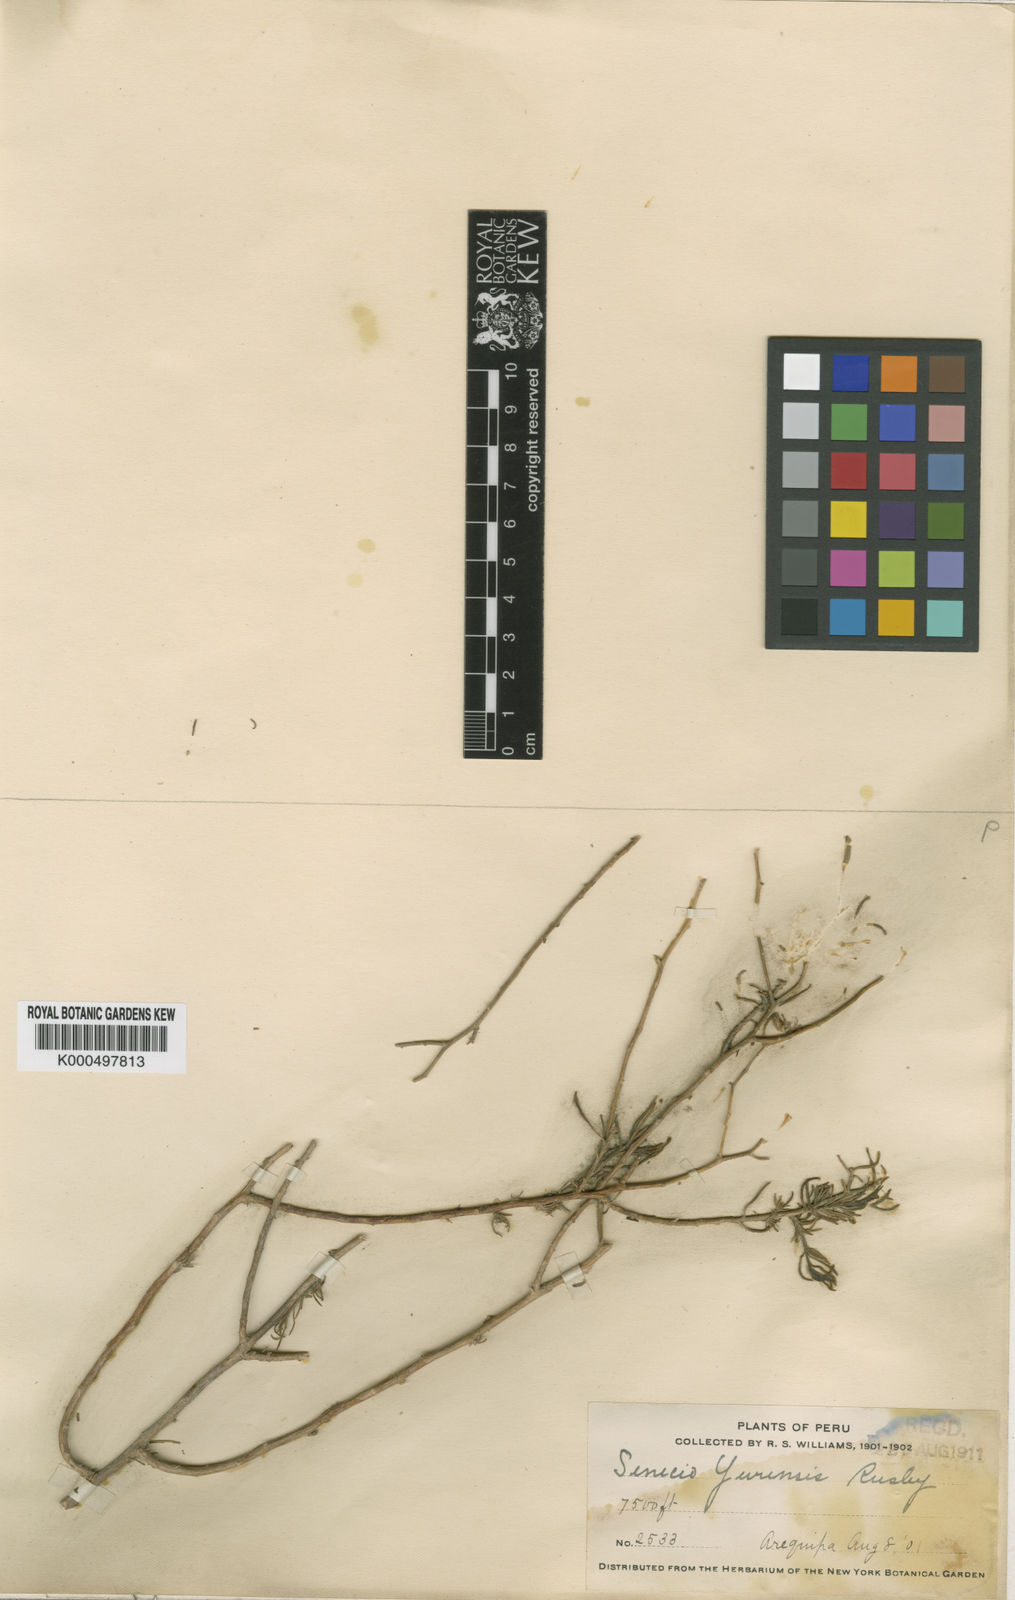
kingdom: Plantae
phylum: Tracheophyta
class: Magnoliopsida
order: Asterales
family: Asteraceae
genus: Senecio
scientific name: Senecio yurensis
